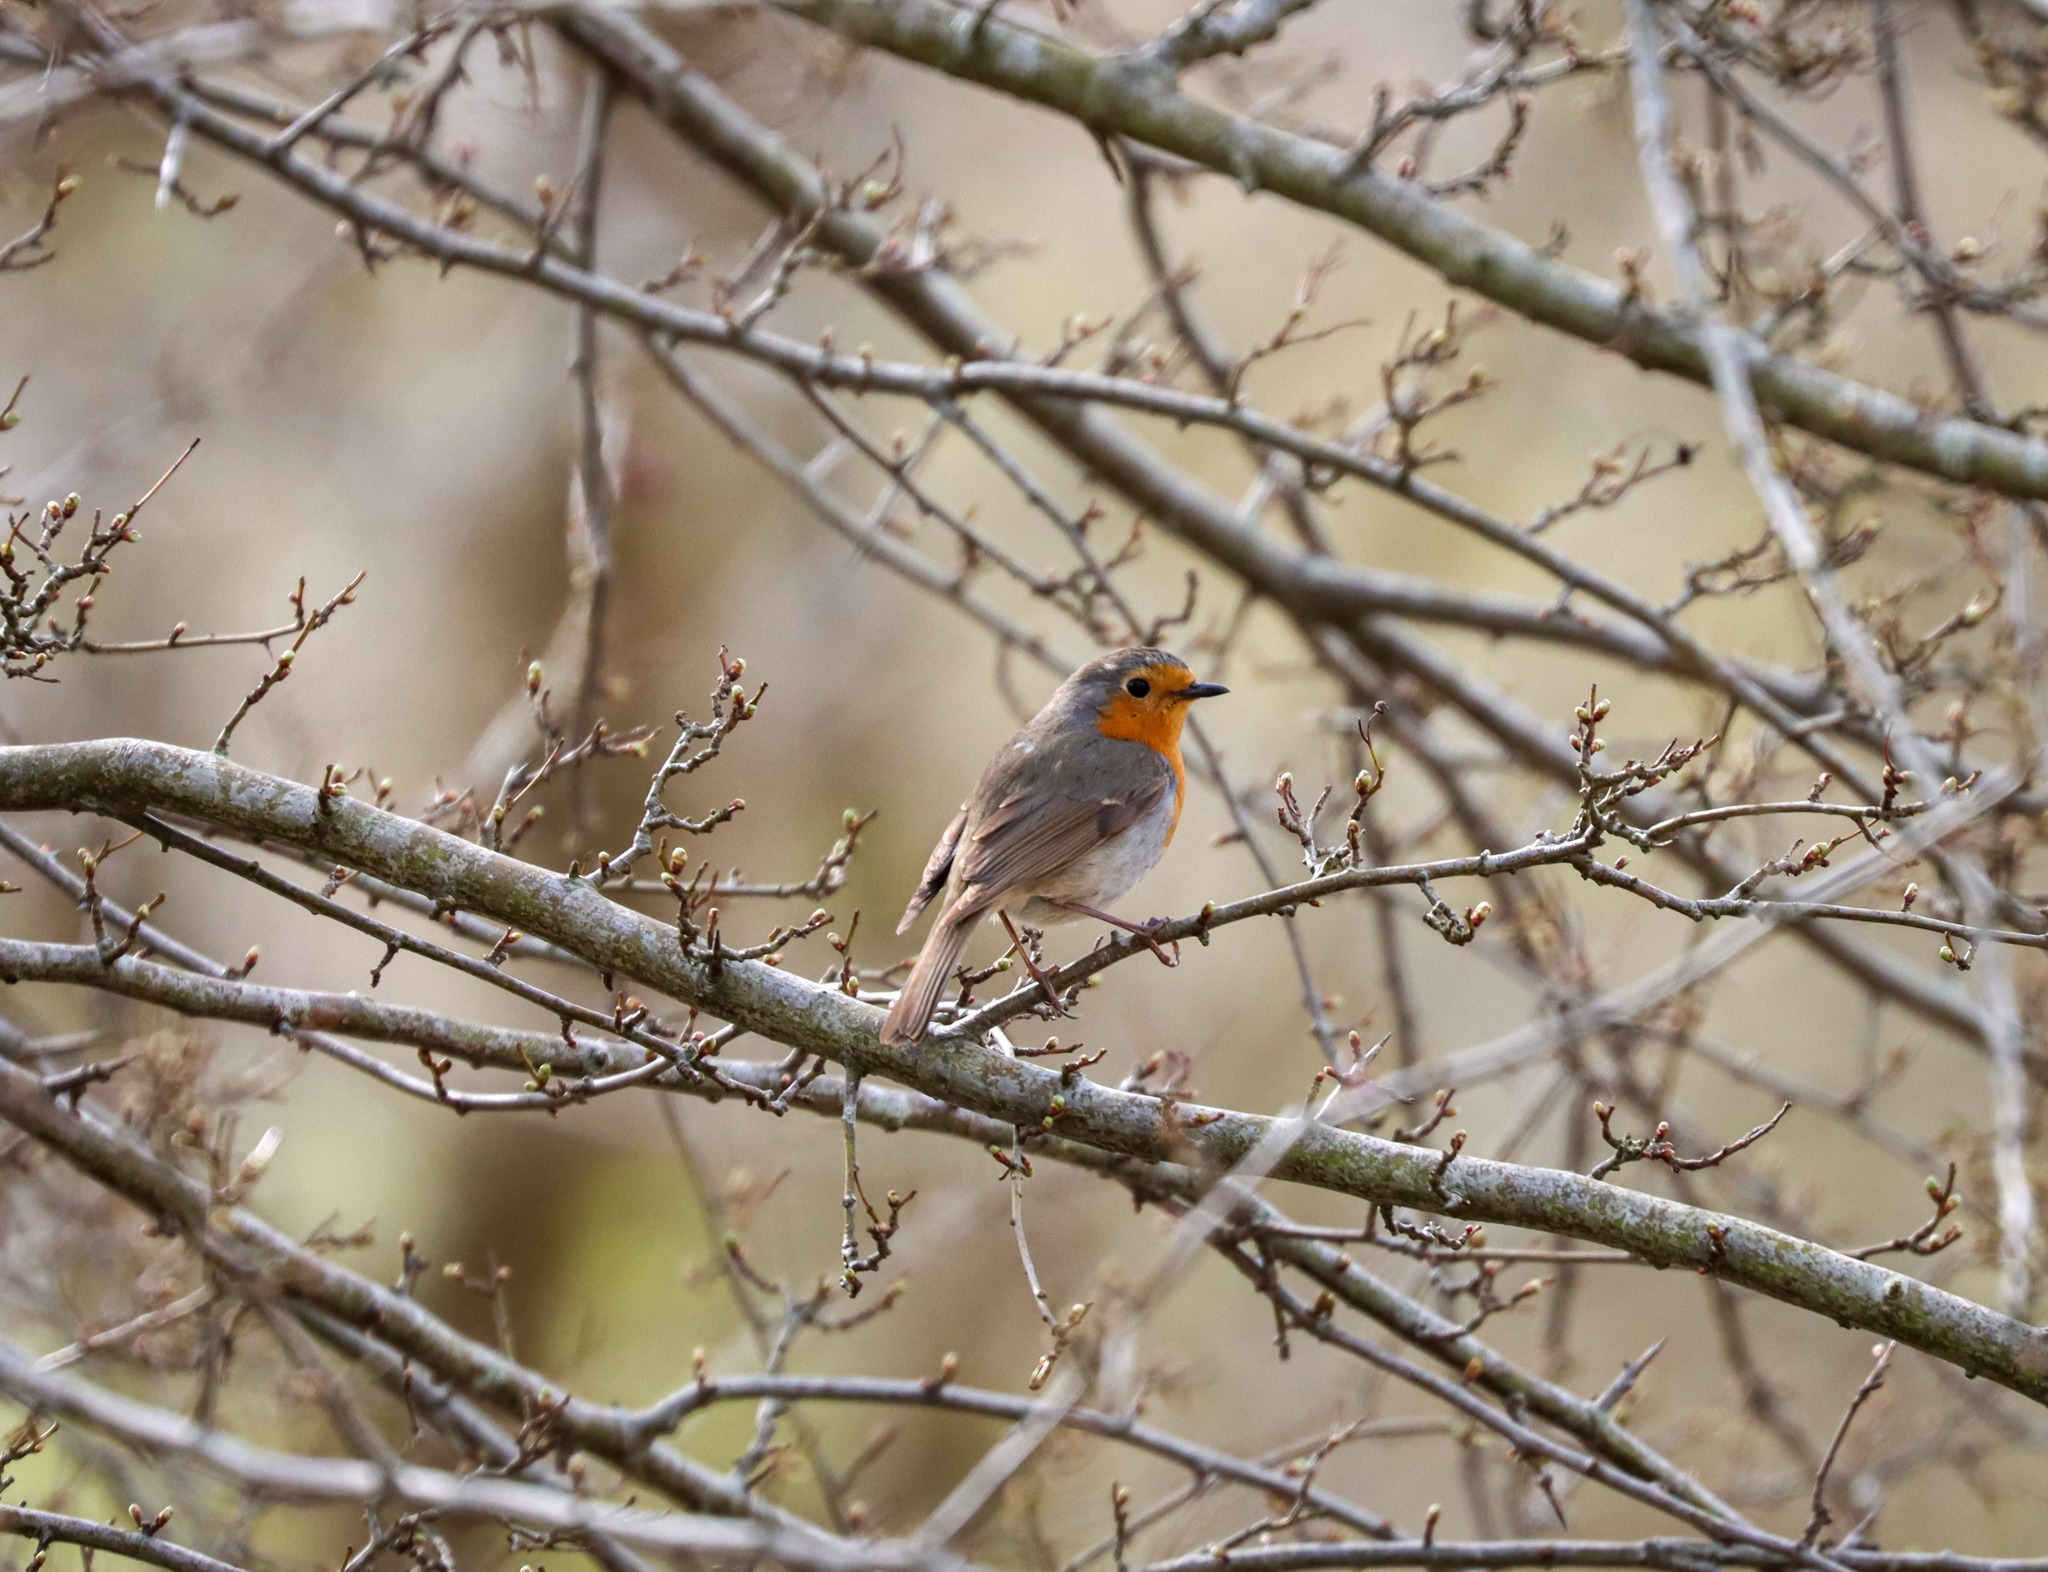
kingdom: Animalia
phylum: Chordata
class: Aves
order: Passeriformes
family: Muscicapidae
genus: Erithacus
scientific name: Erithacus rubecula
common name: Rødhals/rødkælk
